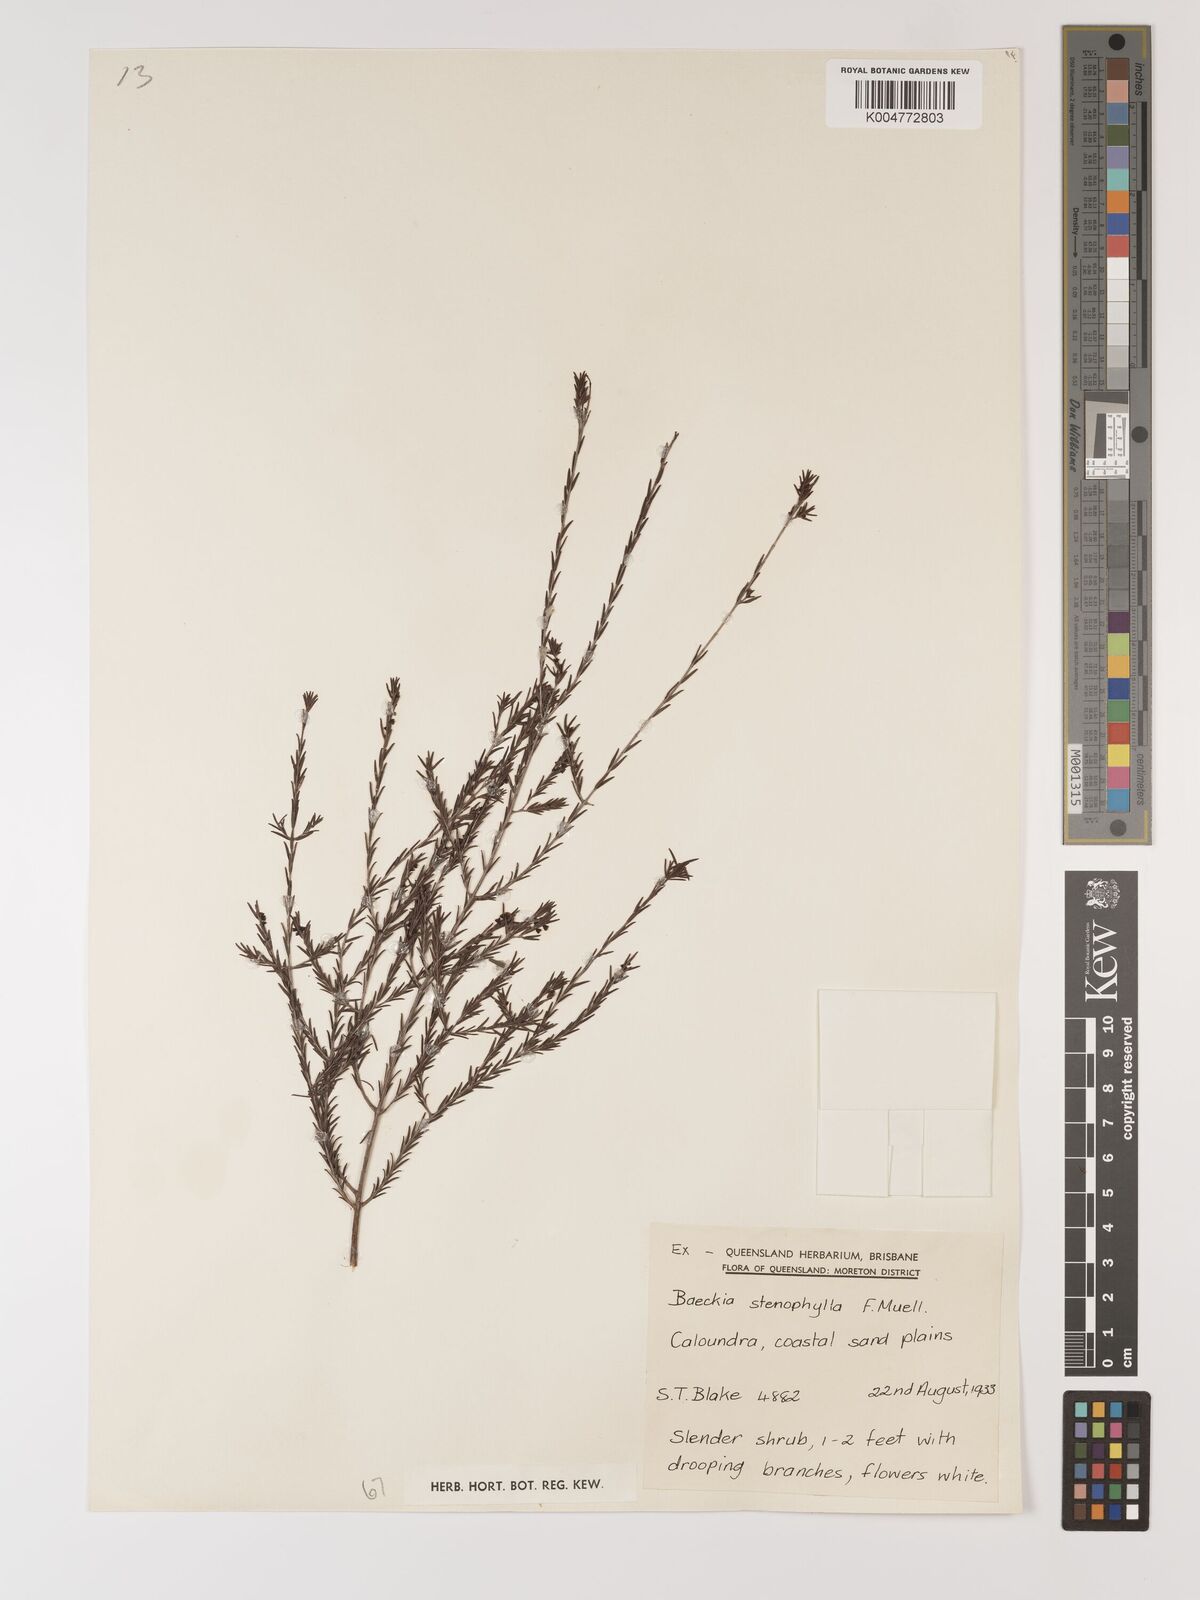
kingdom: Plantae
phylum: Tracheophyta
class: Magnoliopsida
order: Myrtales
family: Myrtaceae
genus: Baeckea
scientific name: Baeckea frutescens
